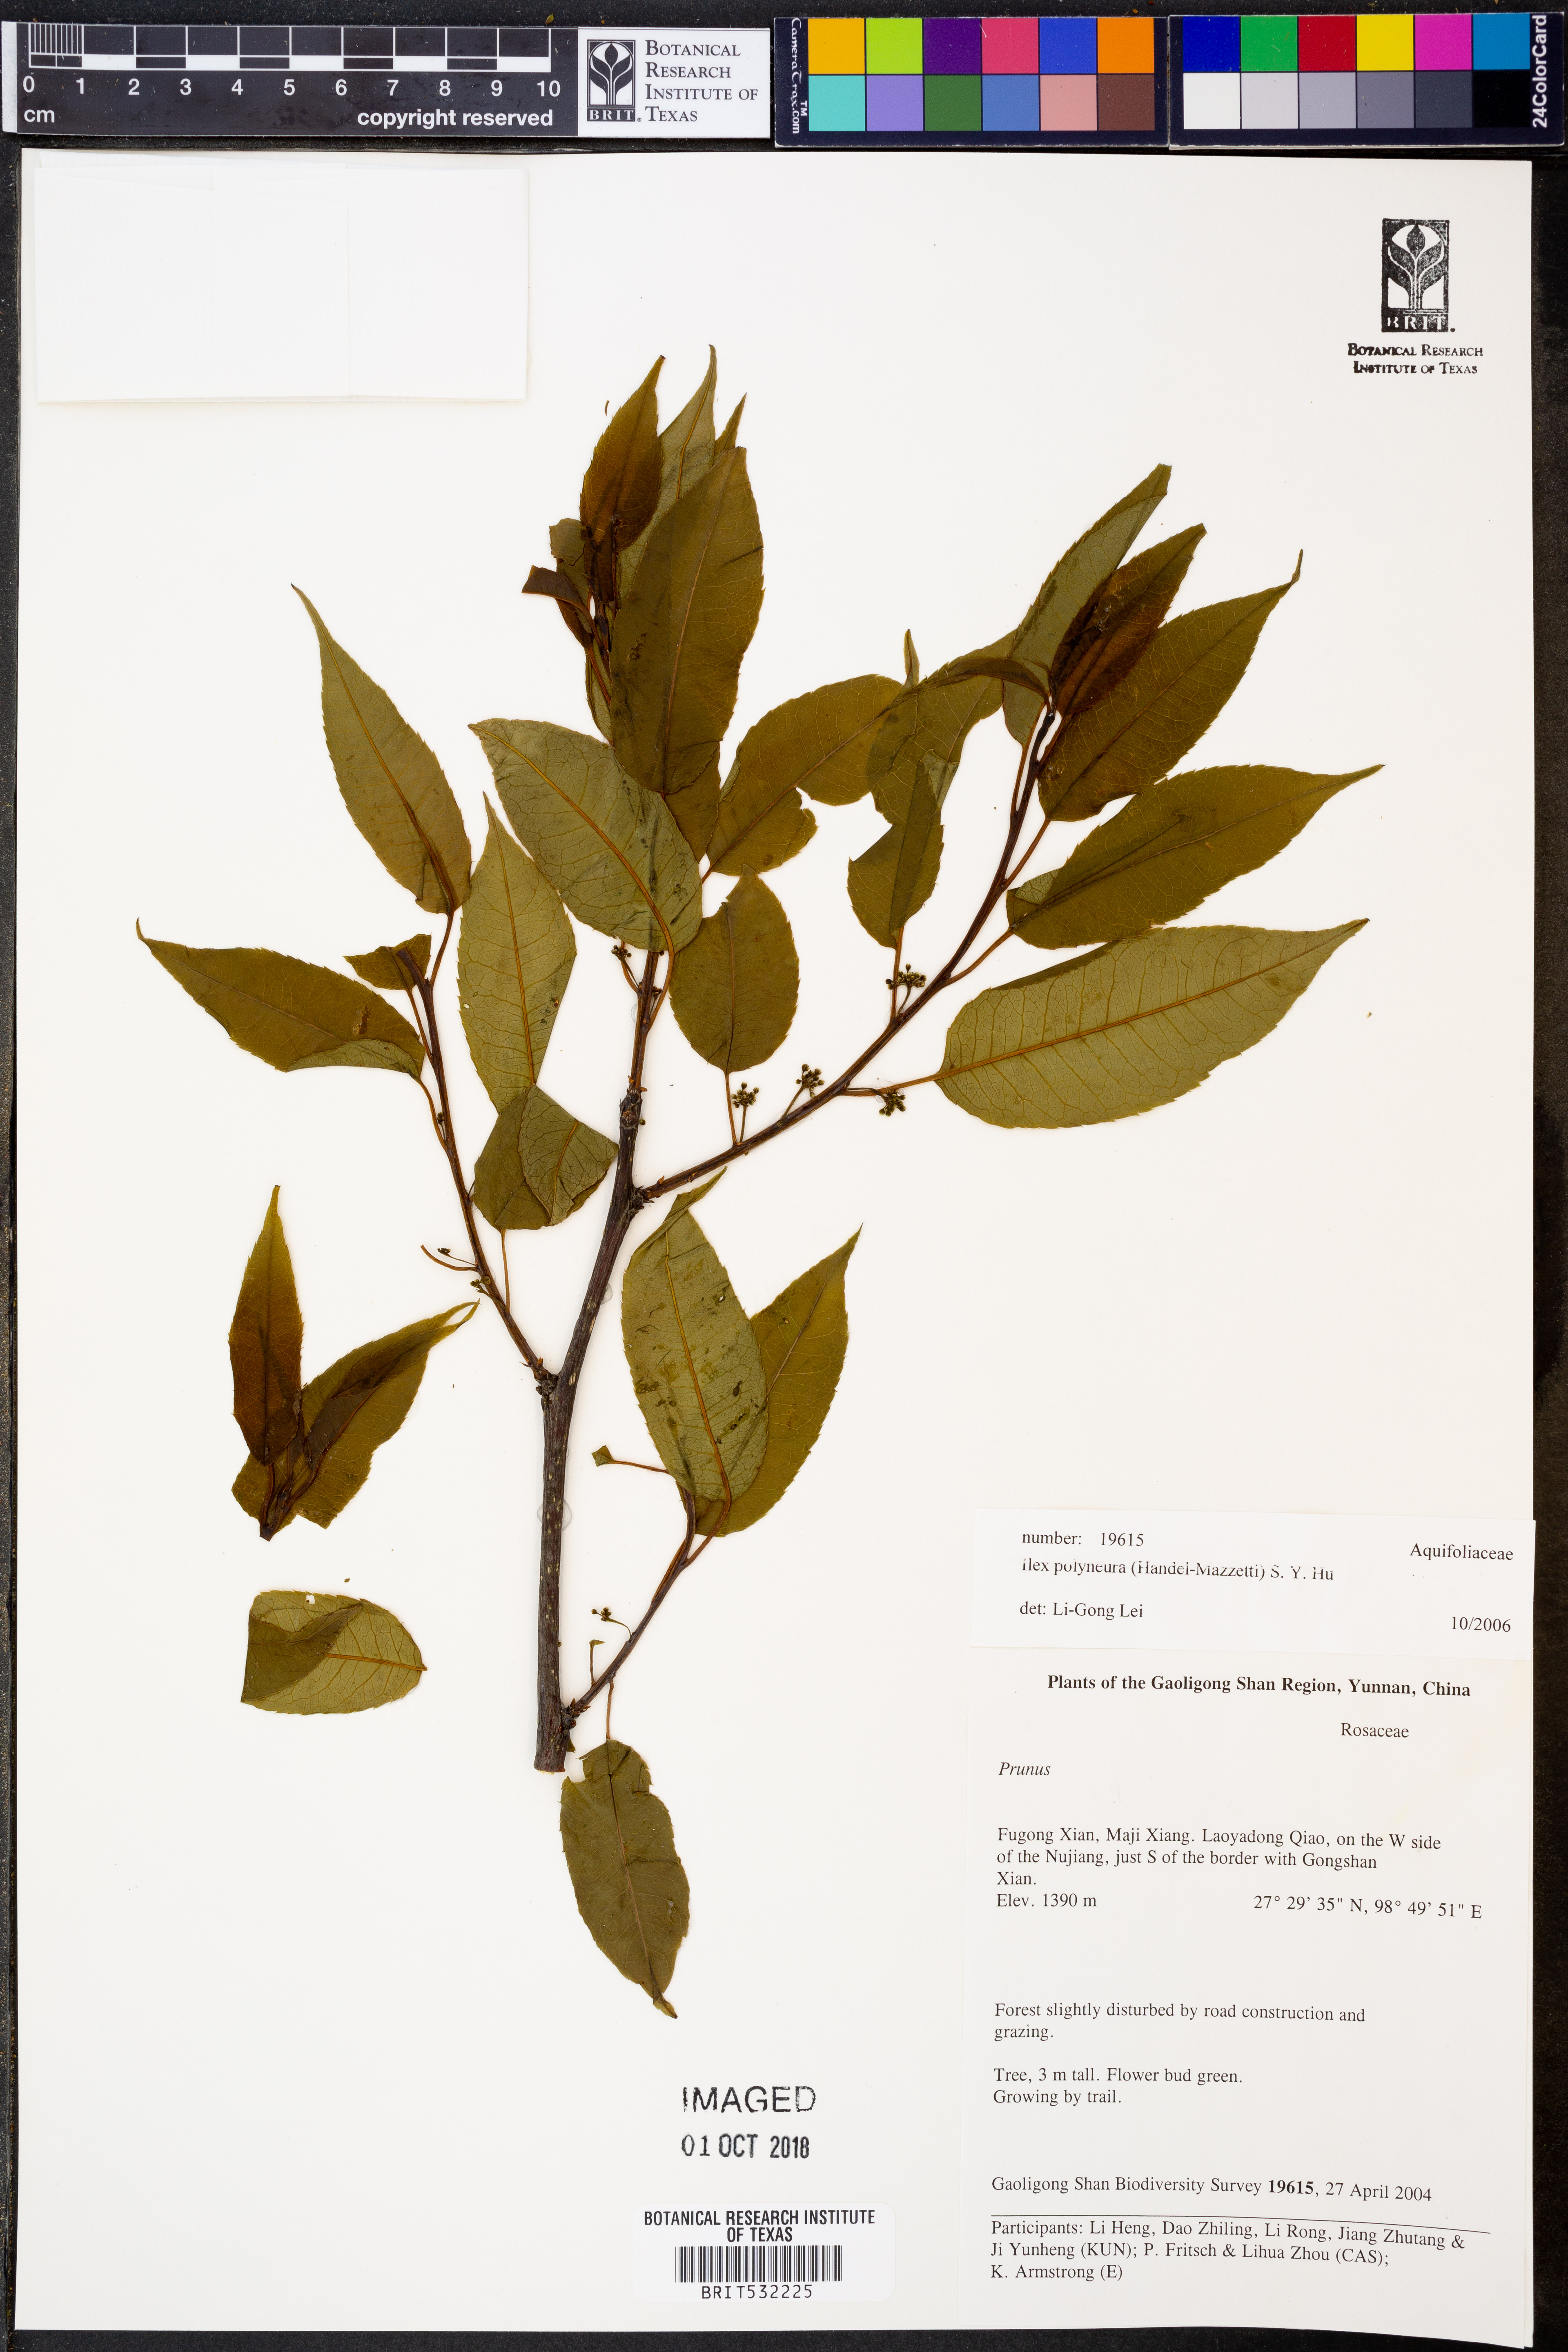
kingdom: Plantae
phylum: Tracheophyta
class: Magnoliopsida
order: Aquifoliales
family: Aquifoliaceae
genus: Ilex
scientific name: Ilex micrococca
